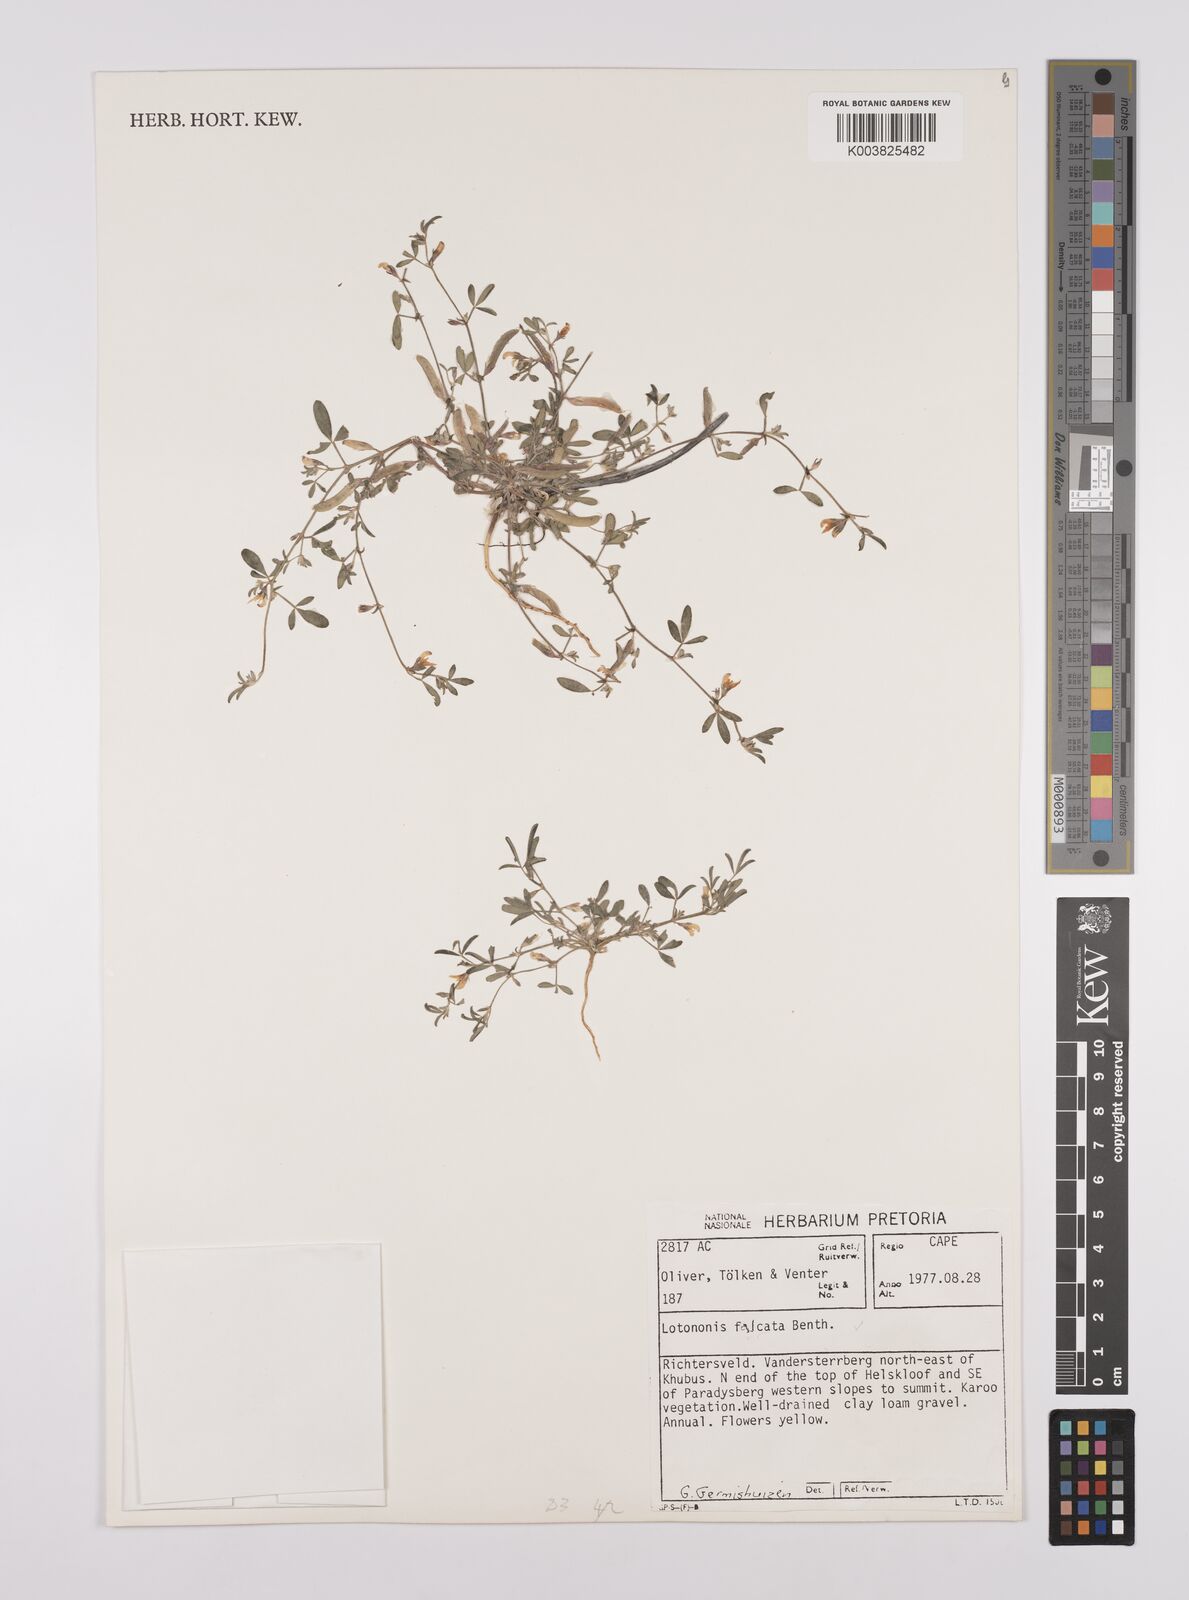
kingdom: Plantae
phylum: Tracheophyta
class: Magnoliopsida
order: Fabales
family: Fabaceae
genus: Lotononis
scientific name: Lotononis falcata
